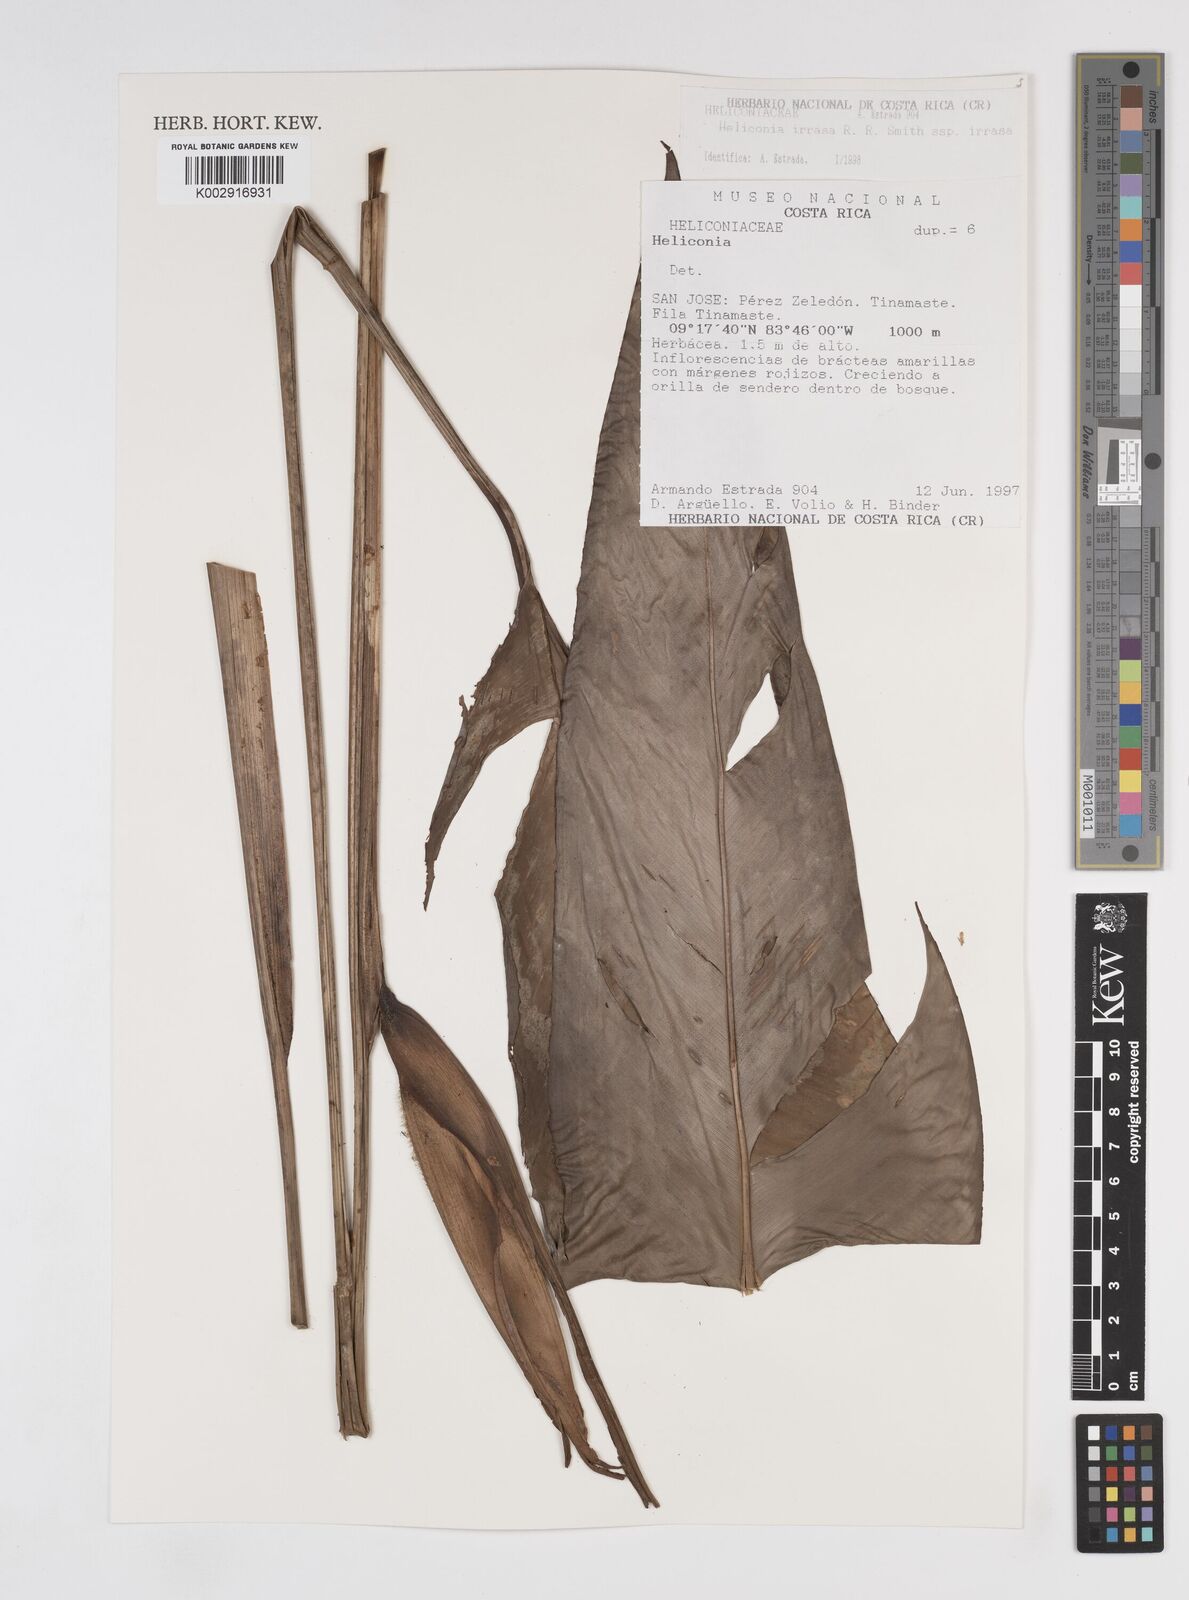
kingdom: Plantae
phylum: Tracheophyta
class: Liliopsida
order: Zingiberales
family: Heliconiaceae
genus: Heliconia
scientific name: Heliconia irrasa
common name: Wild plantain
